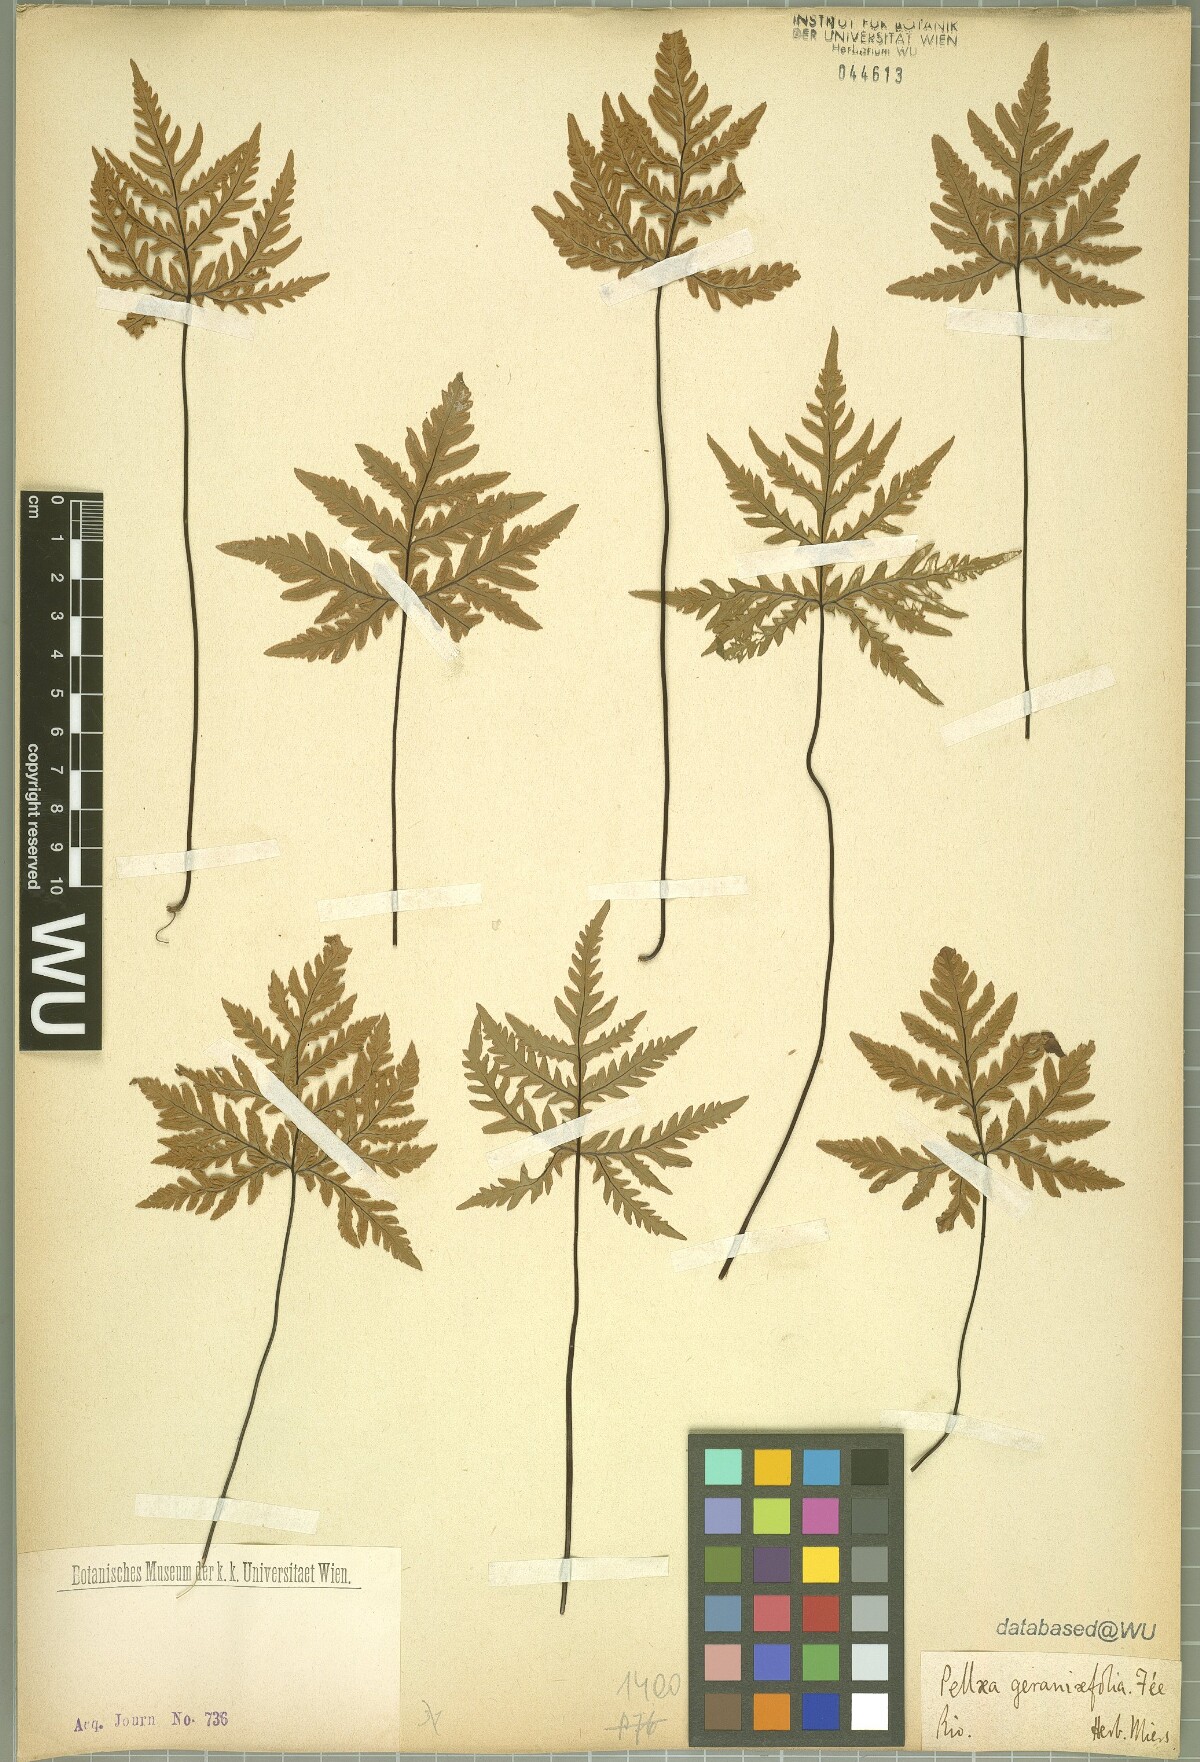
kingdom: Plantae
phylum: Tracheophyta
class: Polypodiopsida
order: Polypodiales
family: Pteridaceae
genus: Doryopteris
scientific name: Doryopteris kirkii
